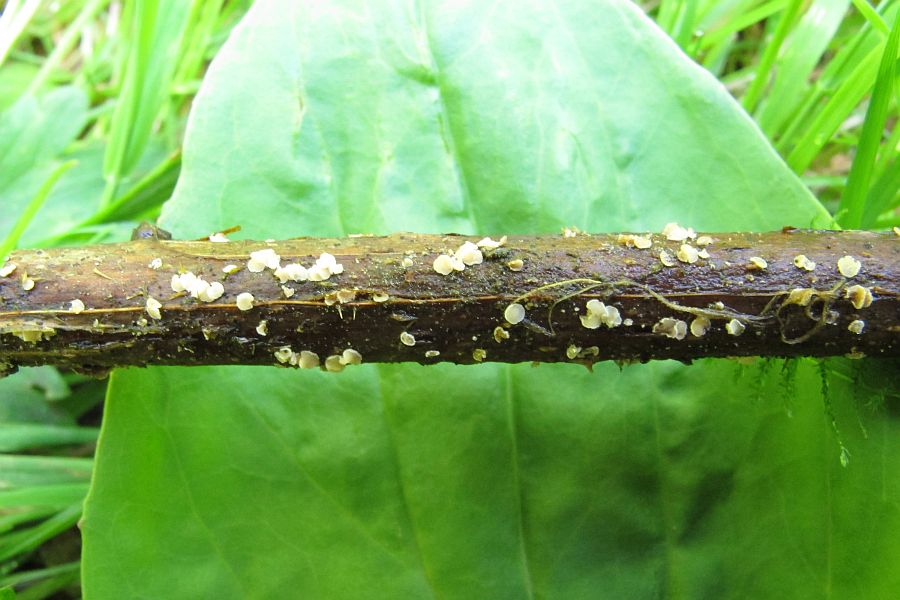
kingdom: Fungi
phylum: Ascomycota
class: Leotiomycetes
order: Helotiales
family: Lachnaceae
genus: Capitotricha
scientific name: Capitotricha rubi
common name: orangegul frynseskive
